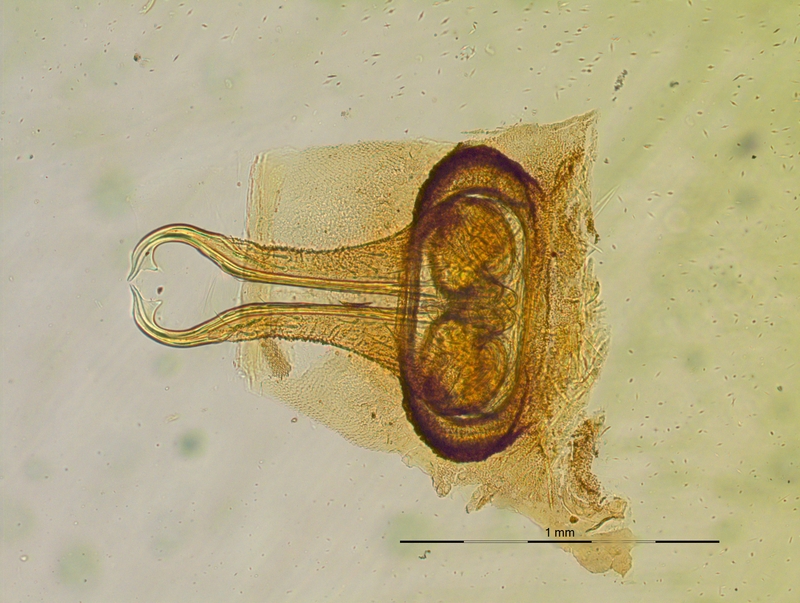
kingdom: Animalia
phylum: Arthropoda
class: Diplopoda
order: Polydesmida
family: Chelodesmidae
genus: Macellolophus
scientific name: Macellolophus rubromarginatus
